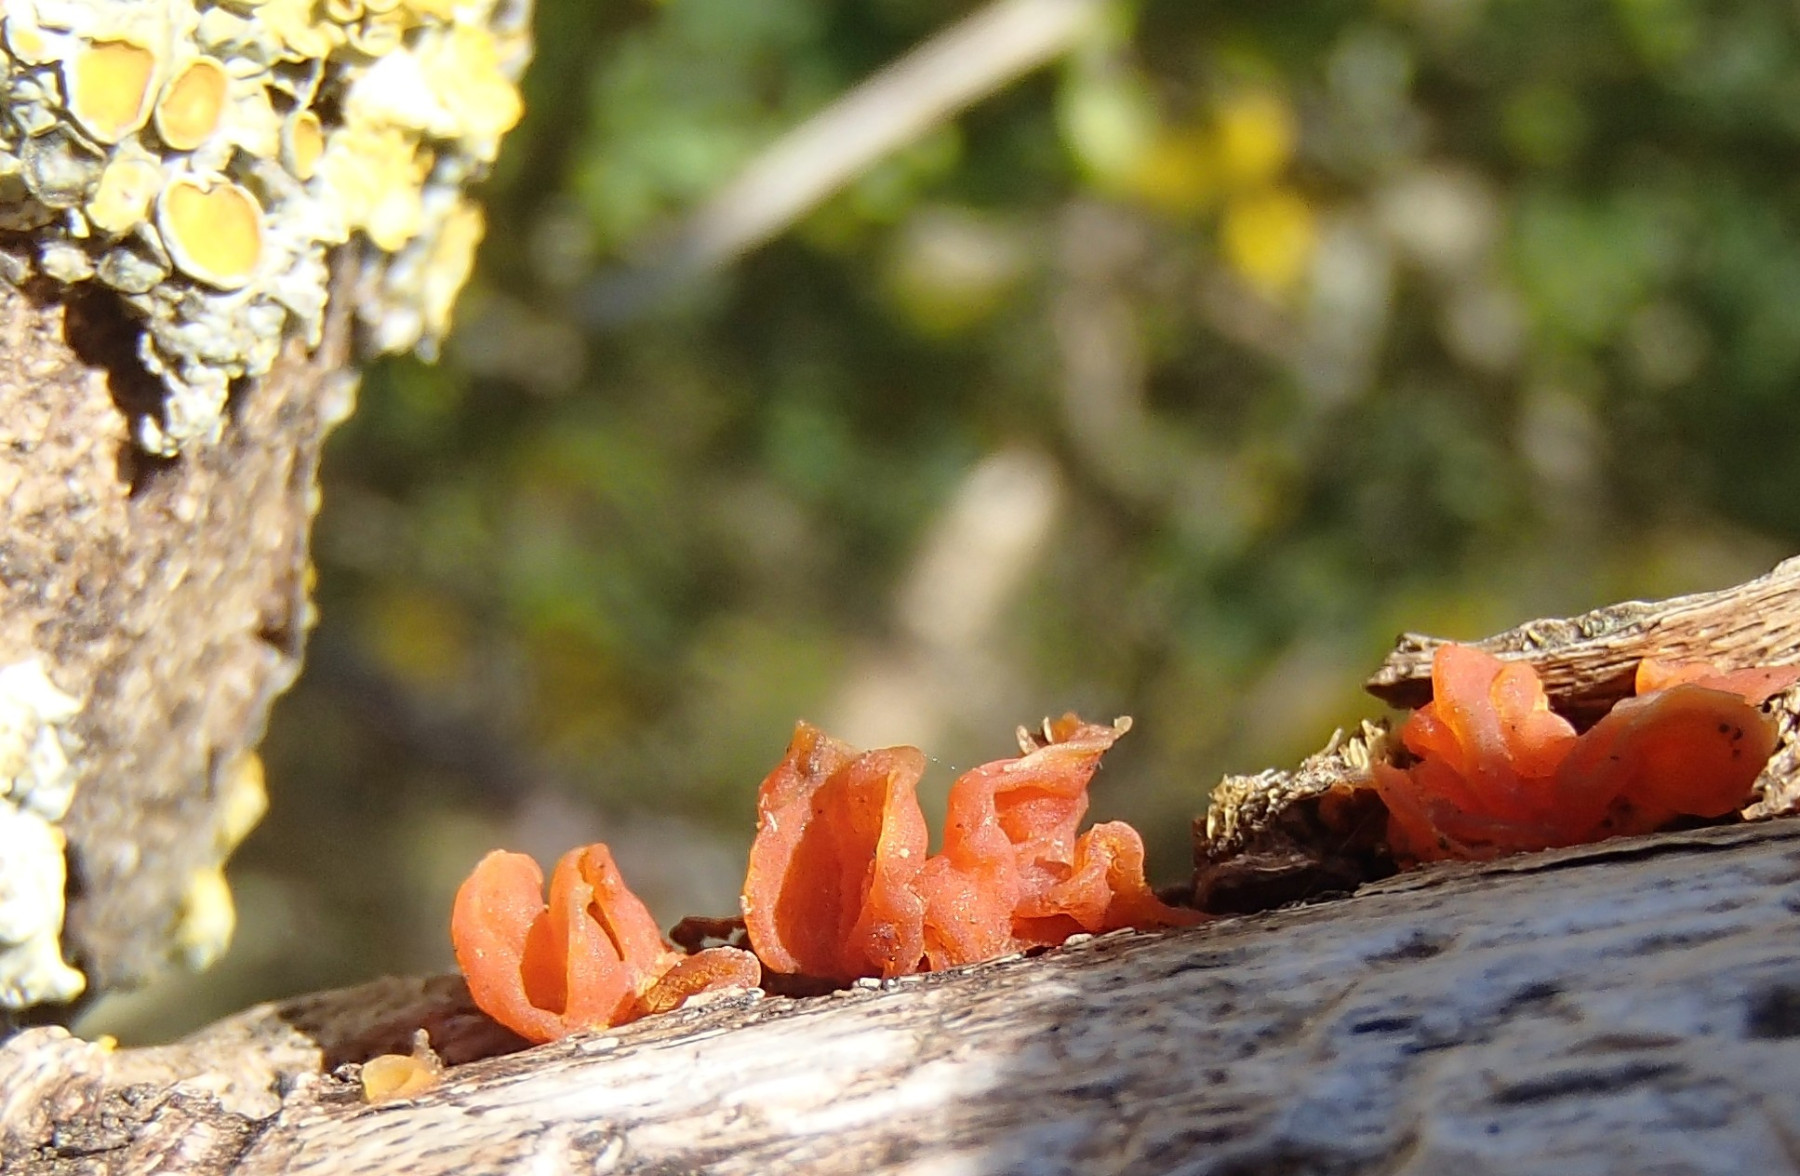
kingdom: Fungi
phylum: Basidiomycota
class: Tremellomycetes
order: Tremellales
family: Tremellaceae
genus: Tremella
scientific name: Tremella mesenterica
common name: gul bævresvamp
